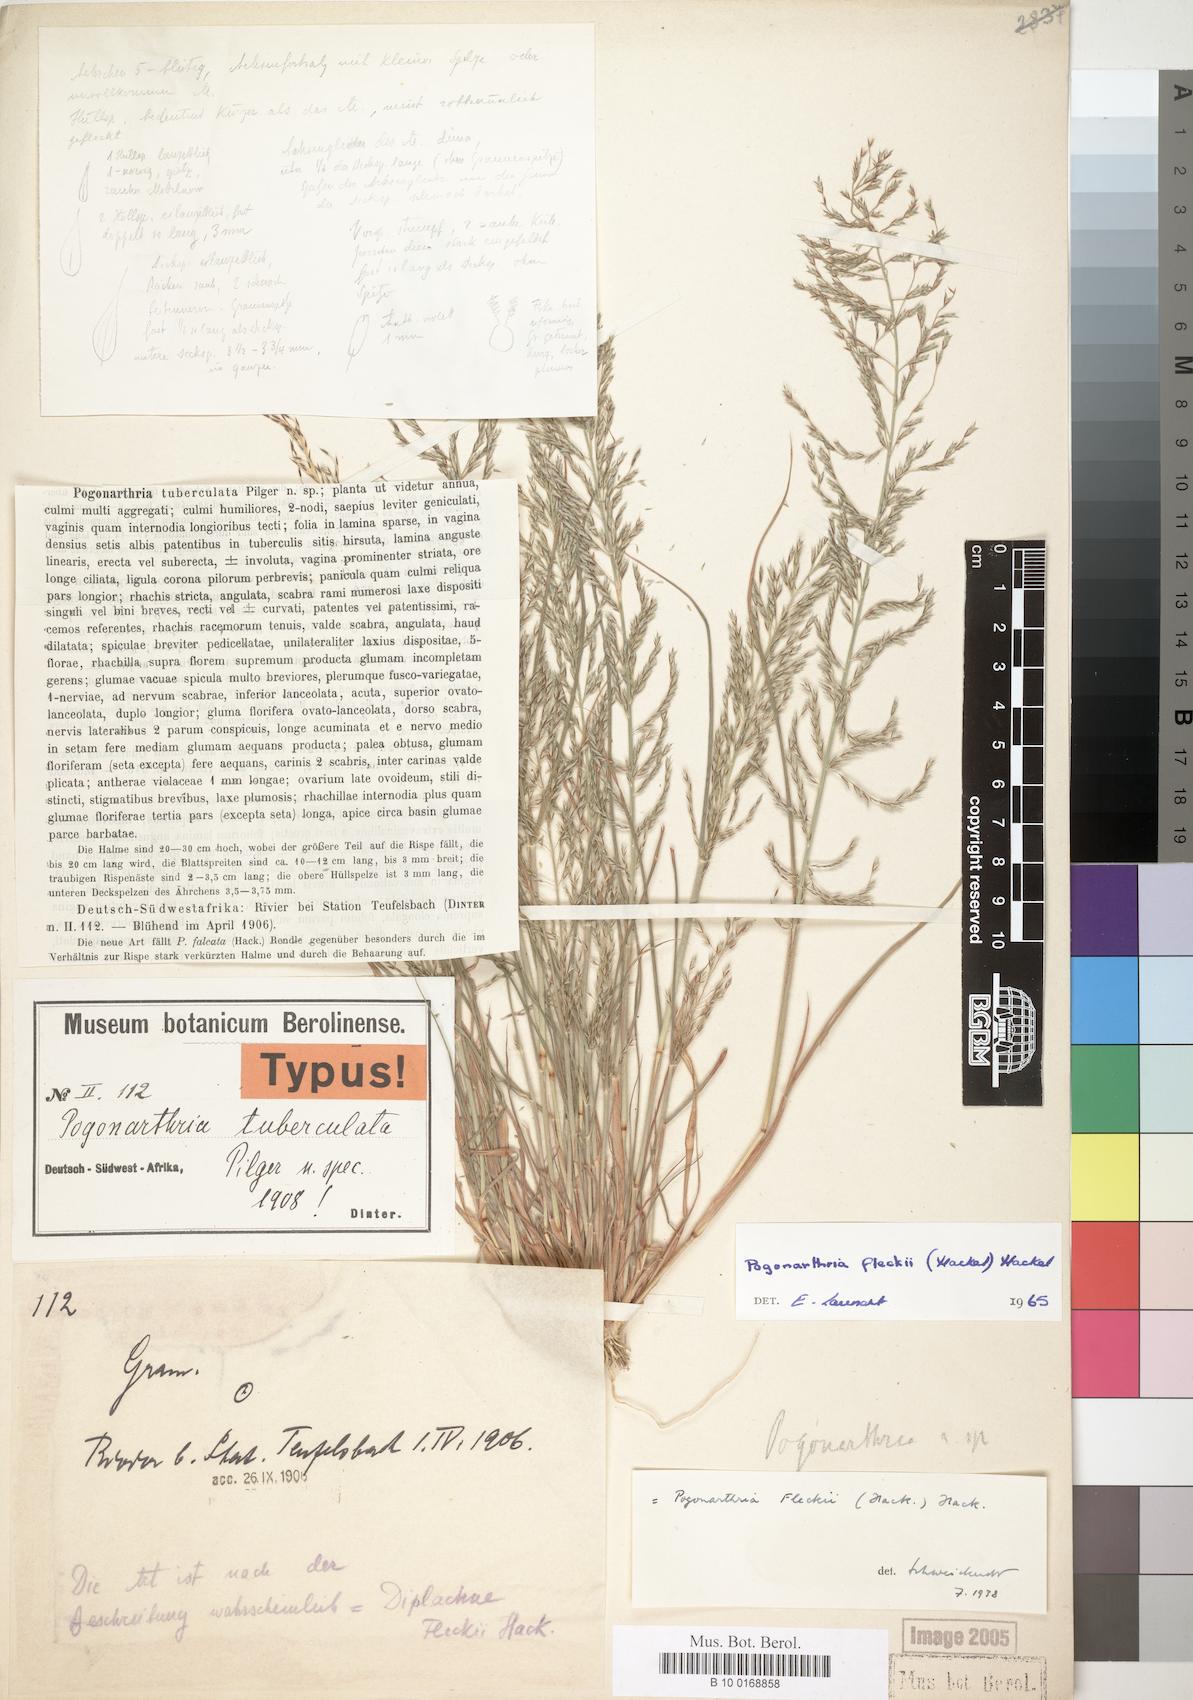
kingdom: Plantae
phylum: Tracheophyta
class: Liliopsida
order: Poales
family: Poaceae
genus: Pogonarthria
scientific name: Pogonarthria fleckii
